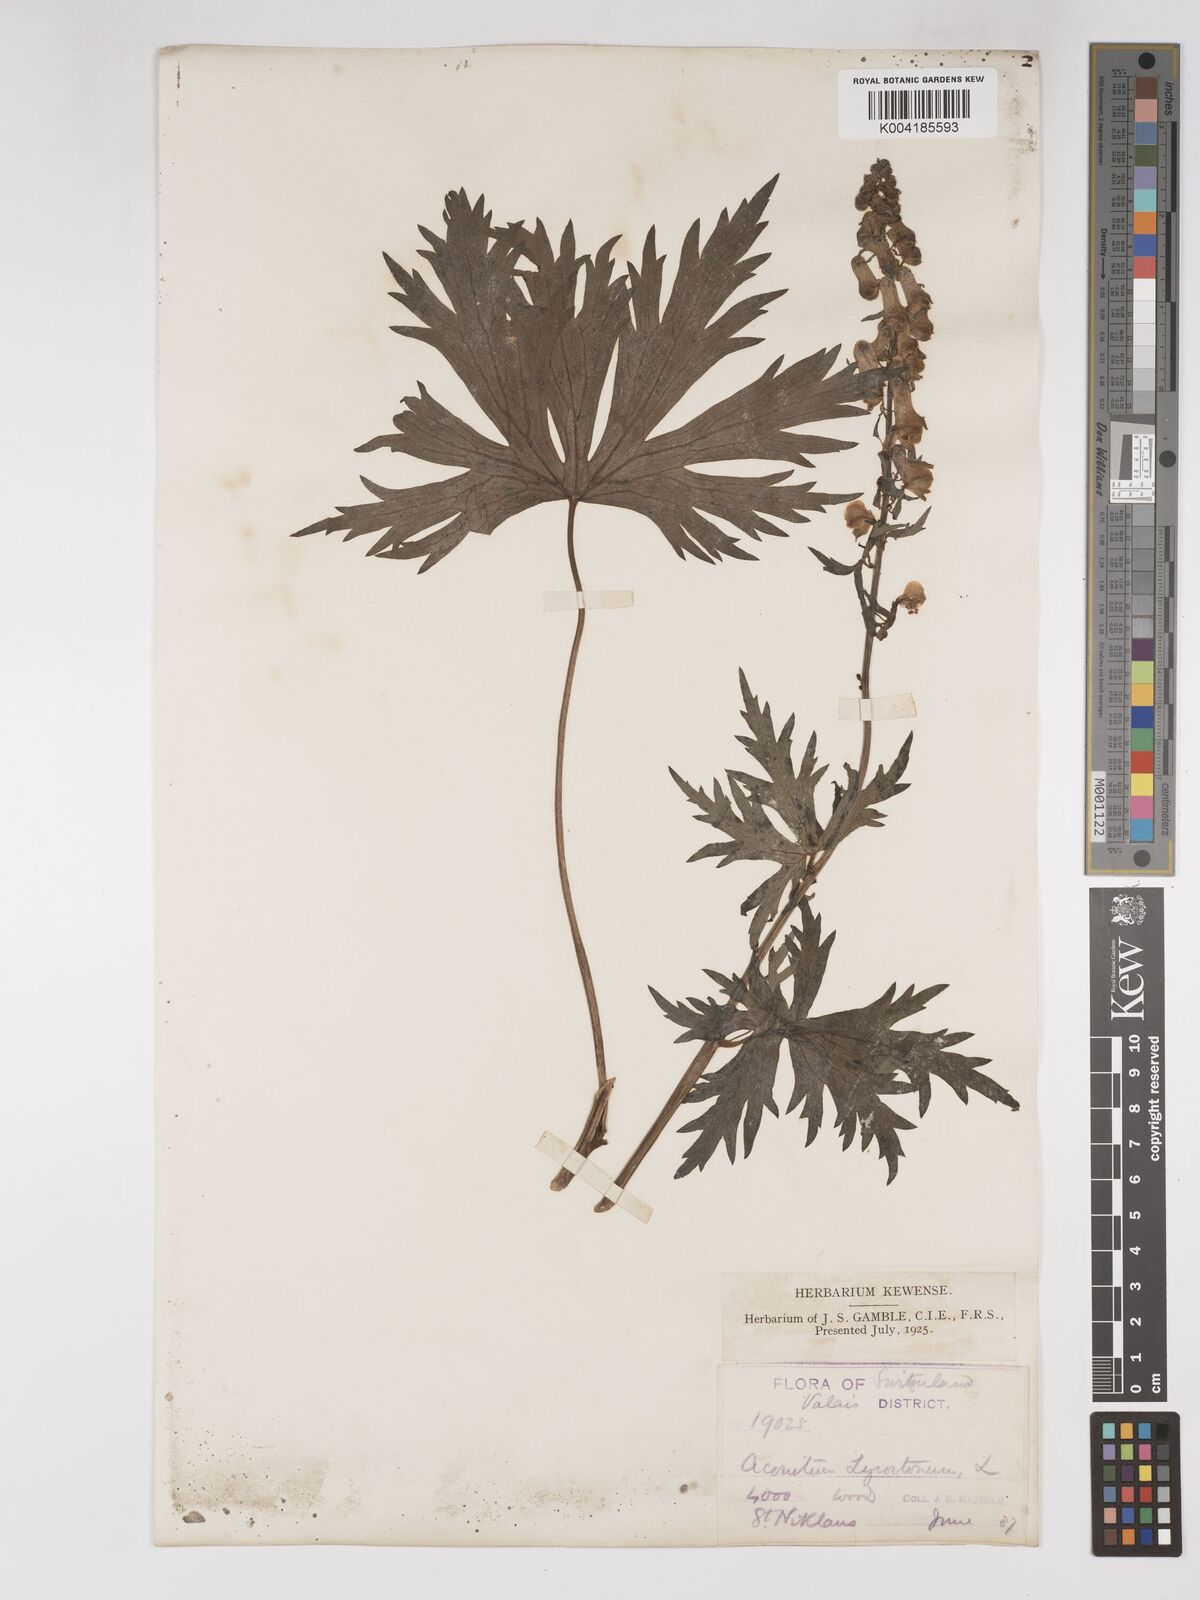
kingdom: Plantae
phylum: Tracheophyta
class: Magnoliopsida
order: Ranunculales
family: Ranunculaceae
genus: Aconitum
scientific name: Aconitum lycoctonum
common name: Wolf's-bane
